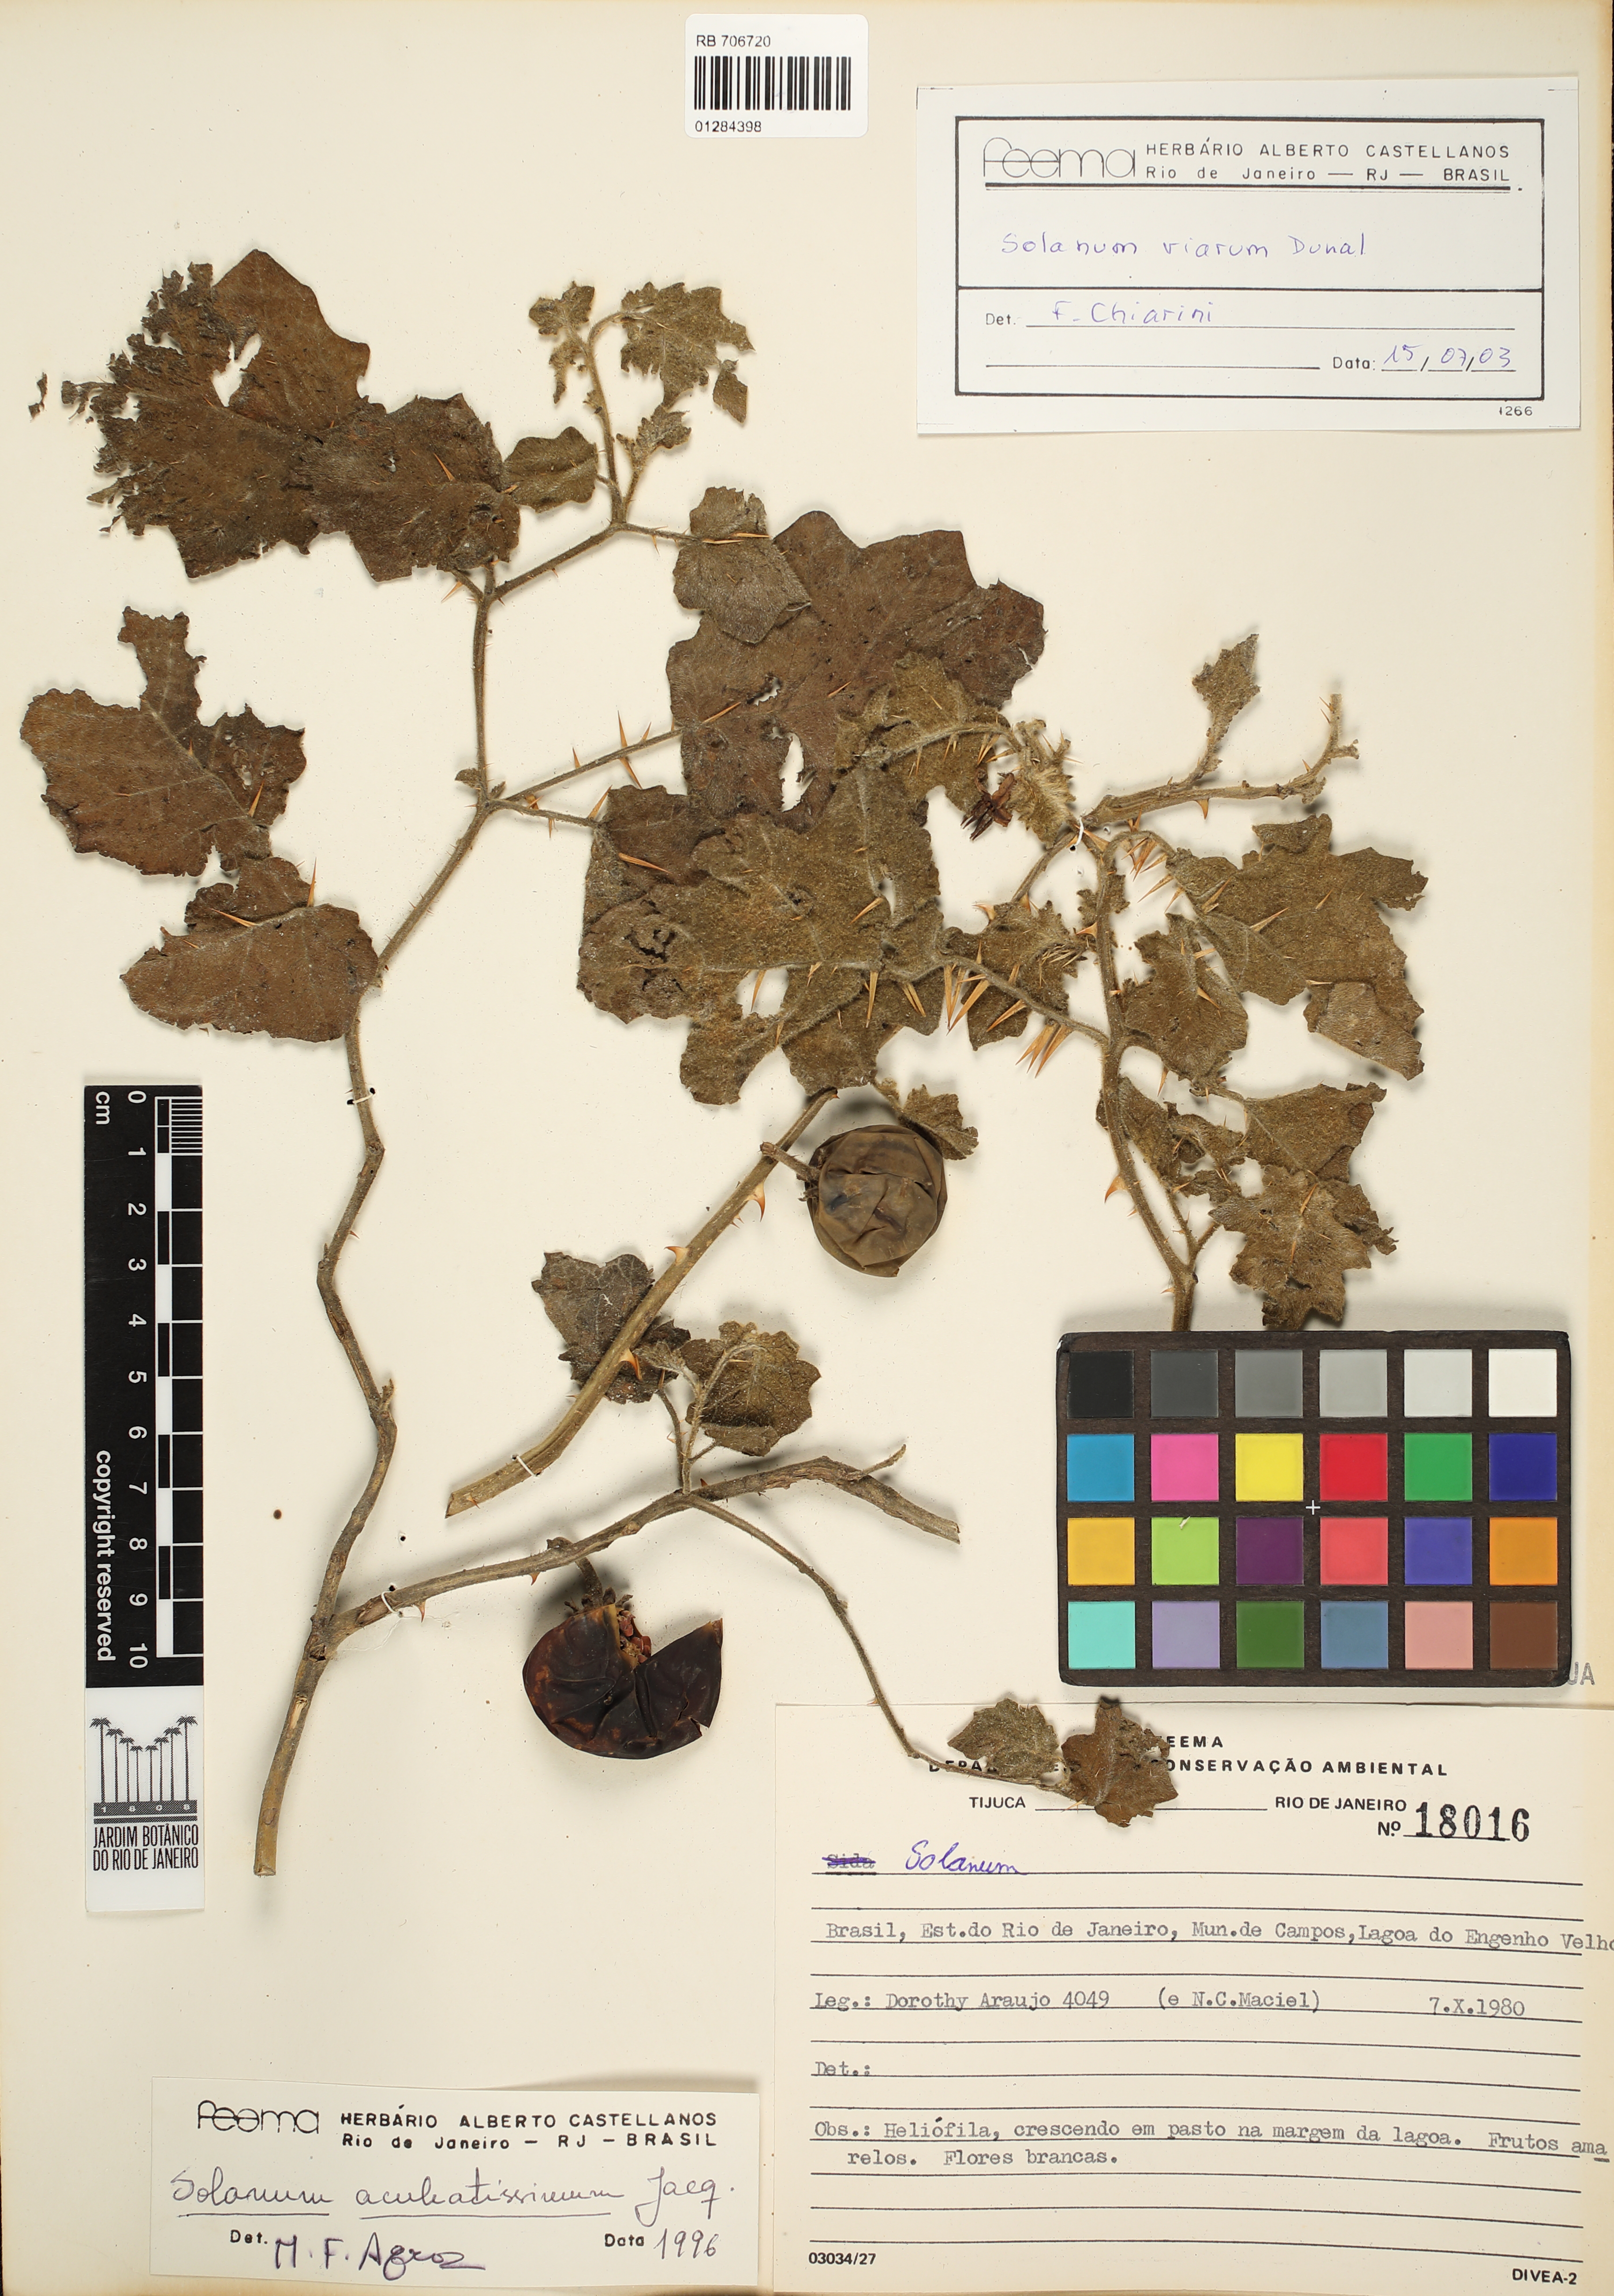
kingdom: Plantae
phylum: Tracheophyta
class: Magnoliopsida
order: Solanales
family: Solanaceae
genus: Solanum
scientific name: Solanum viarum
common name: Tropical soda apple
